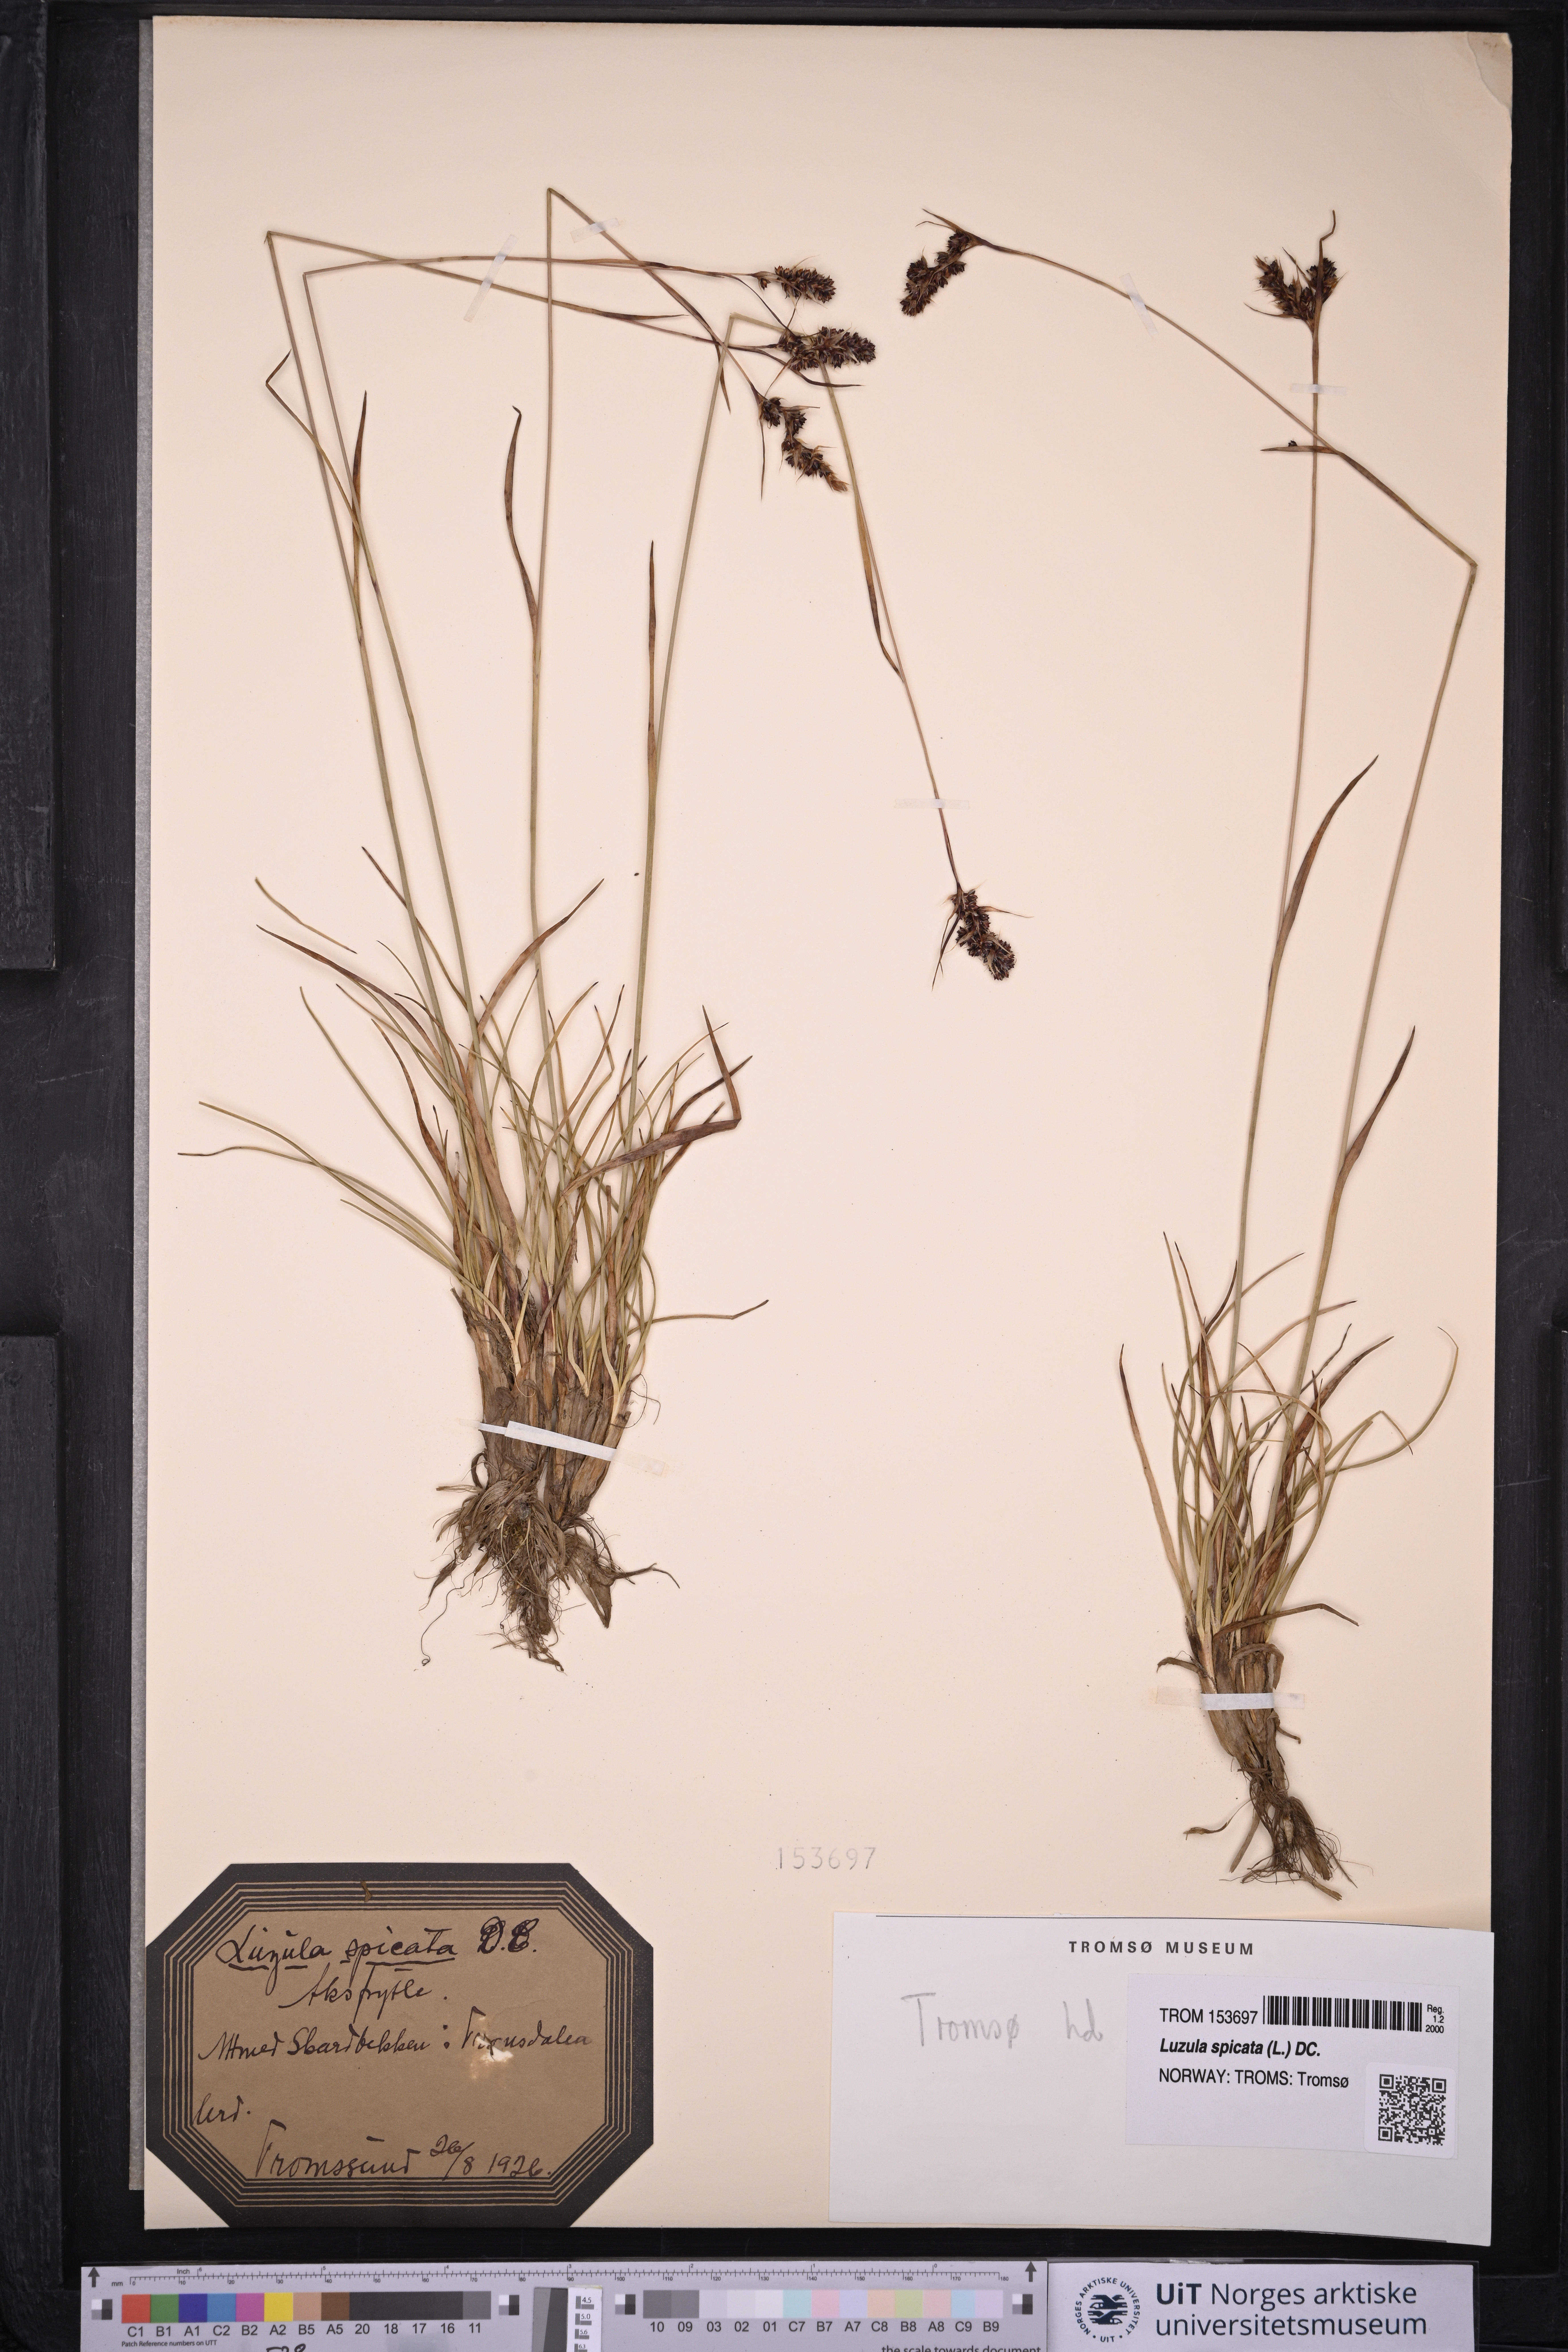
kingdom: Plantae
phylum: Tracheophyta
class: Liliopsida
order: Poales
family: Juncaceae
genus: Luzula
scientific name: Luzula spicata
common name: Spiked wood-rush
